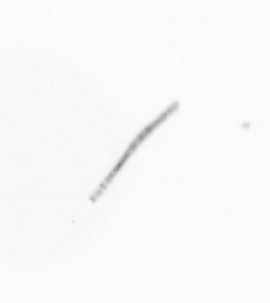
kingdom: Chromista
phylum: Ochrophyta
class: Bacillariophyceae
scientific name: Bacillariophyceae
